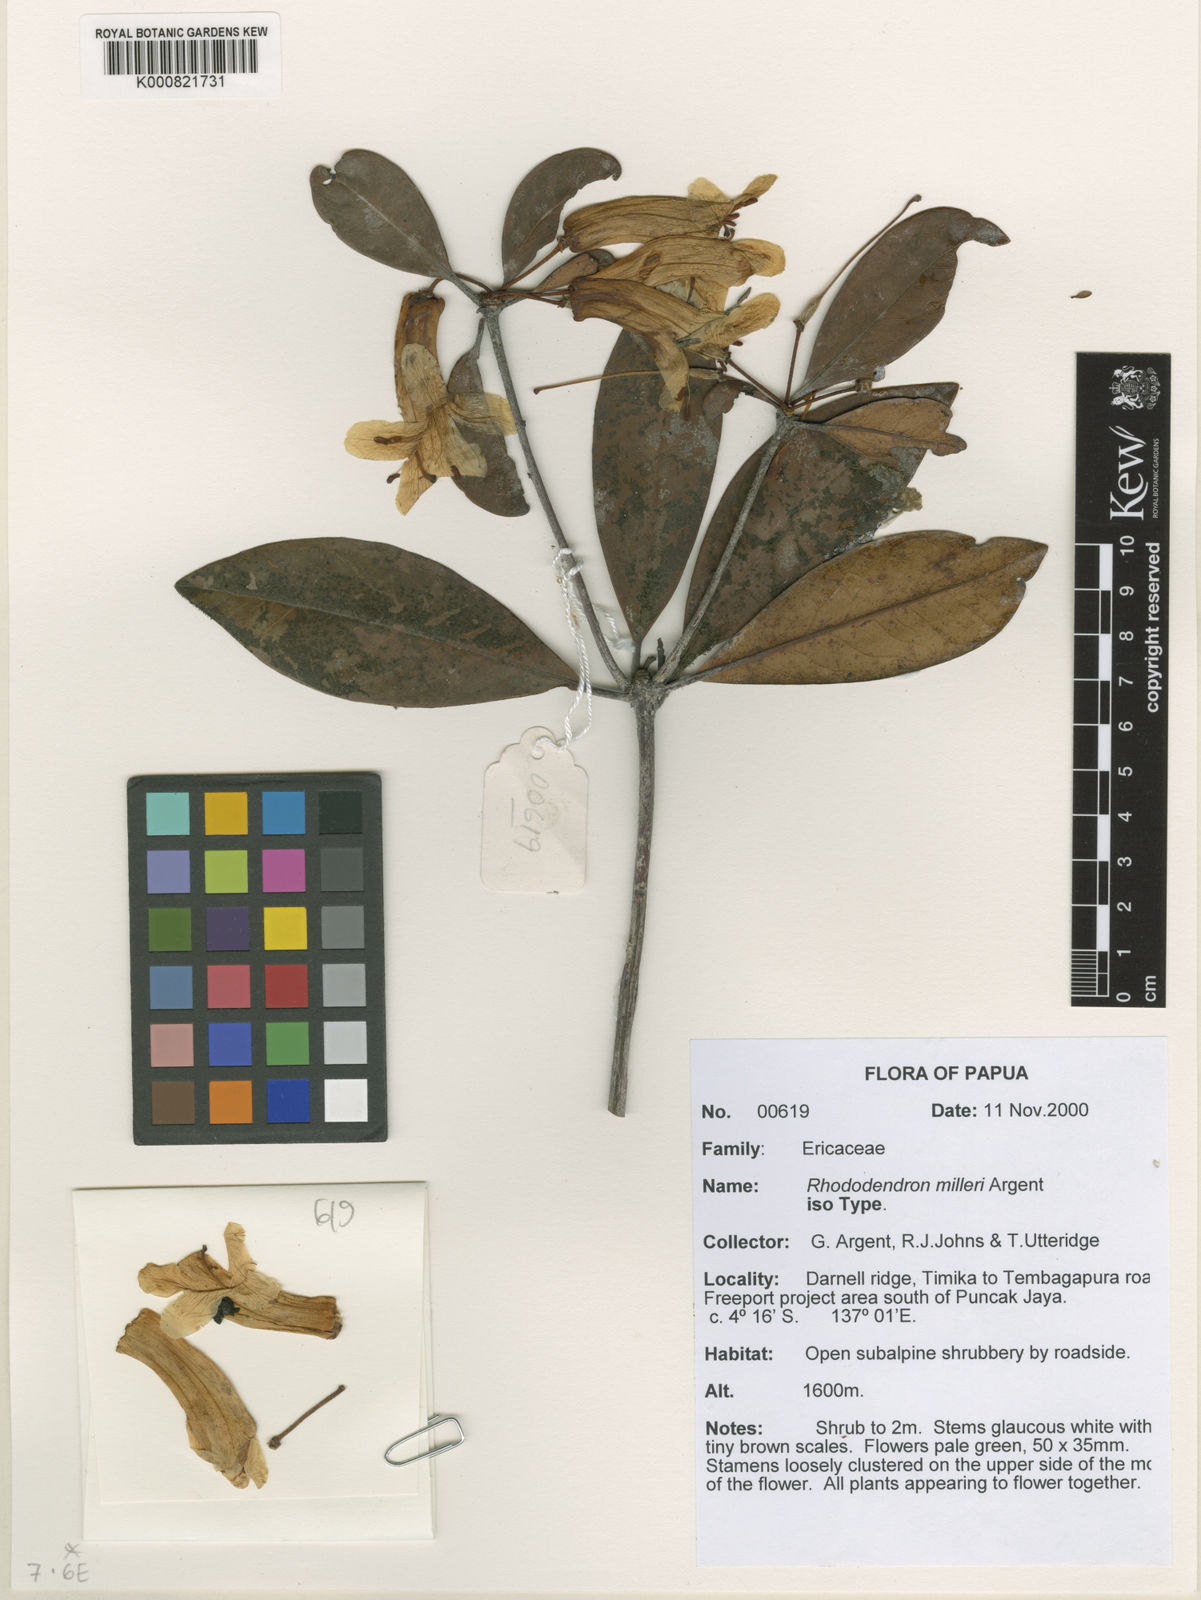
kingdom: Plantae
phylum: Tracheophyta
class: Magnoliopsida
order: Ericales
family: Ericaceae
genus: Rhododendron
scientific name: Rhododendron milleri
